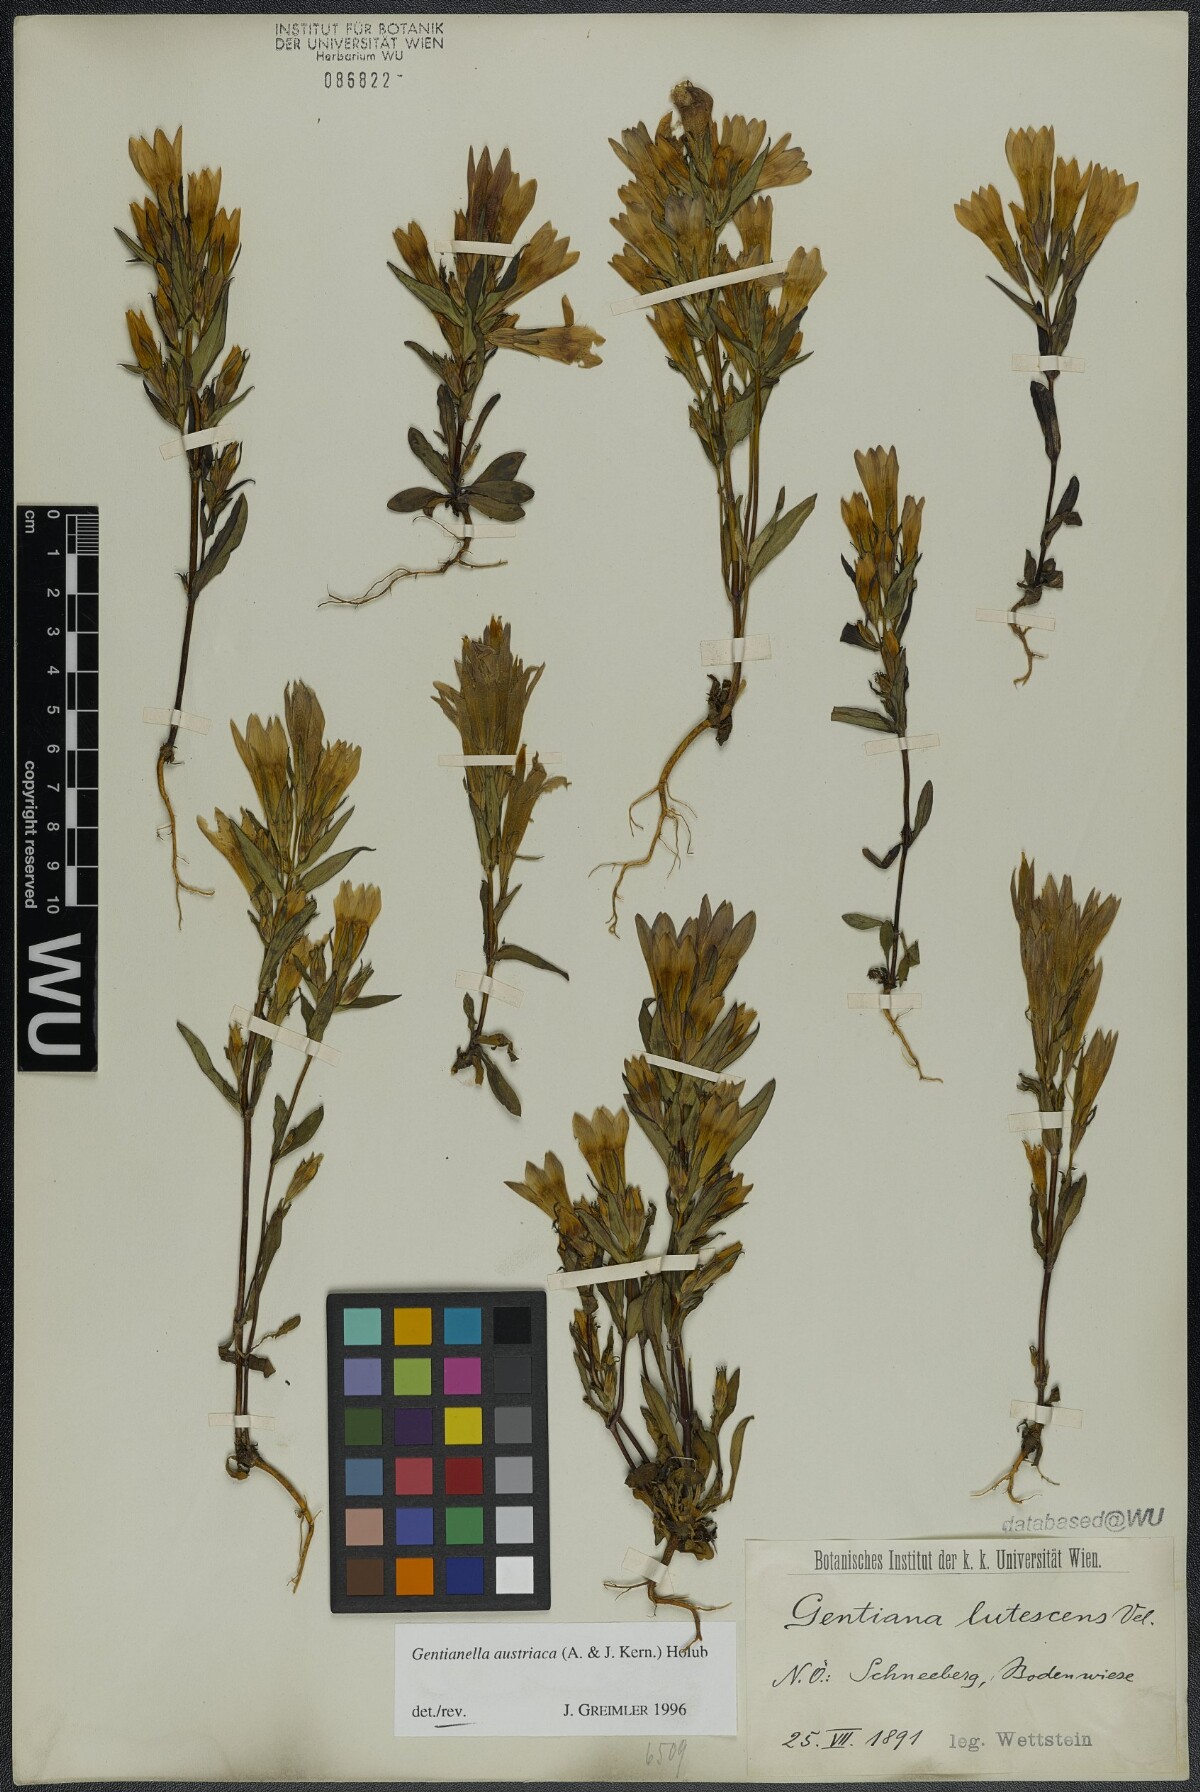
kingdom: Plantae
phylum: Tracheophyta
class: Magnoliopsida
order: Gentianales
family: Gentianaceae
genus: Gentianella
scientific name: Gentianella austriaca
